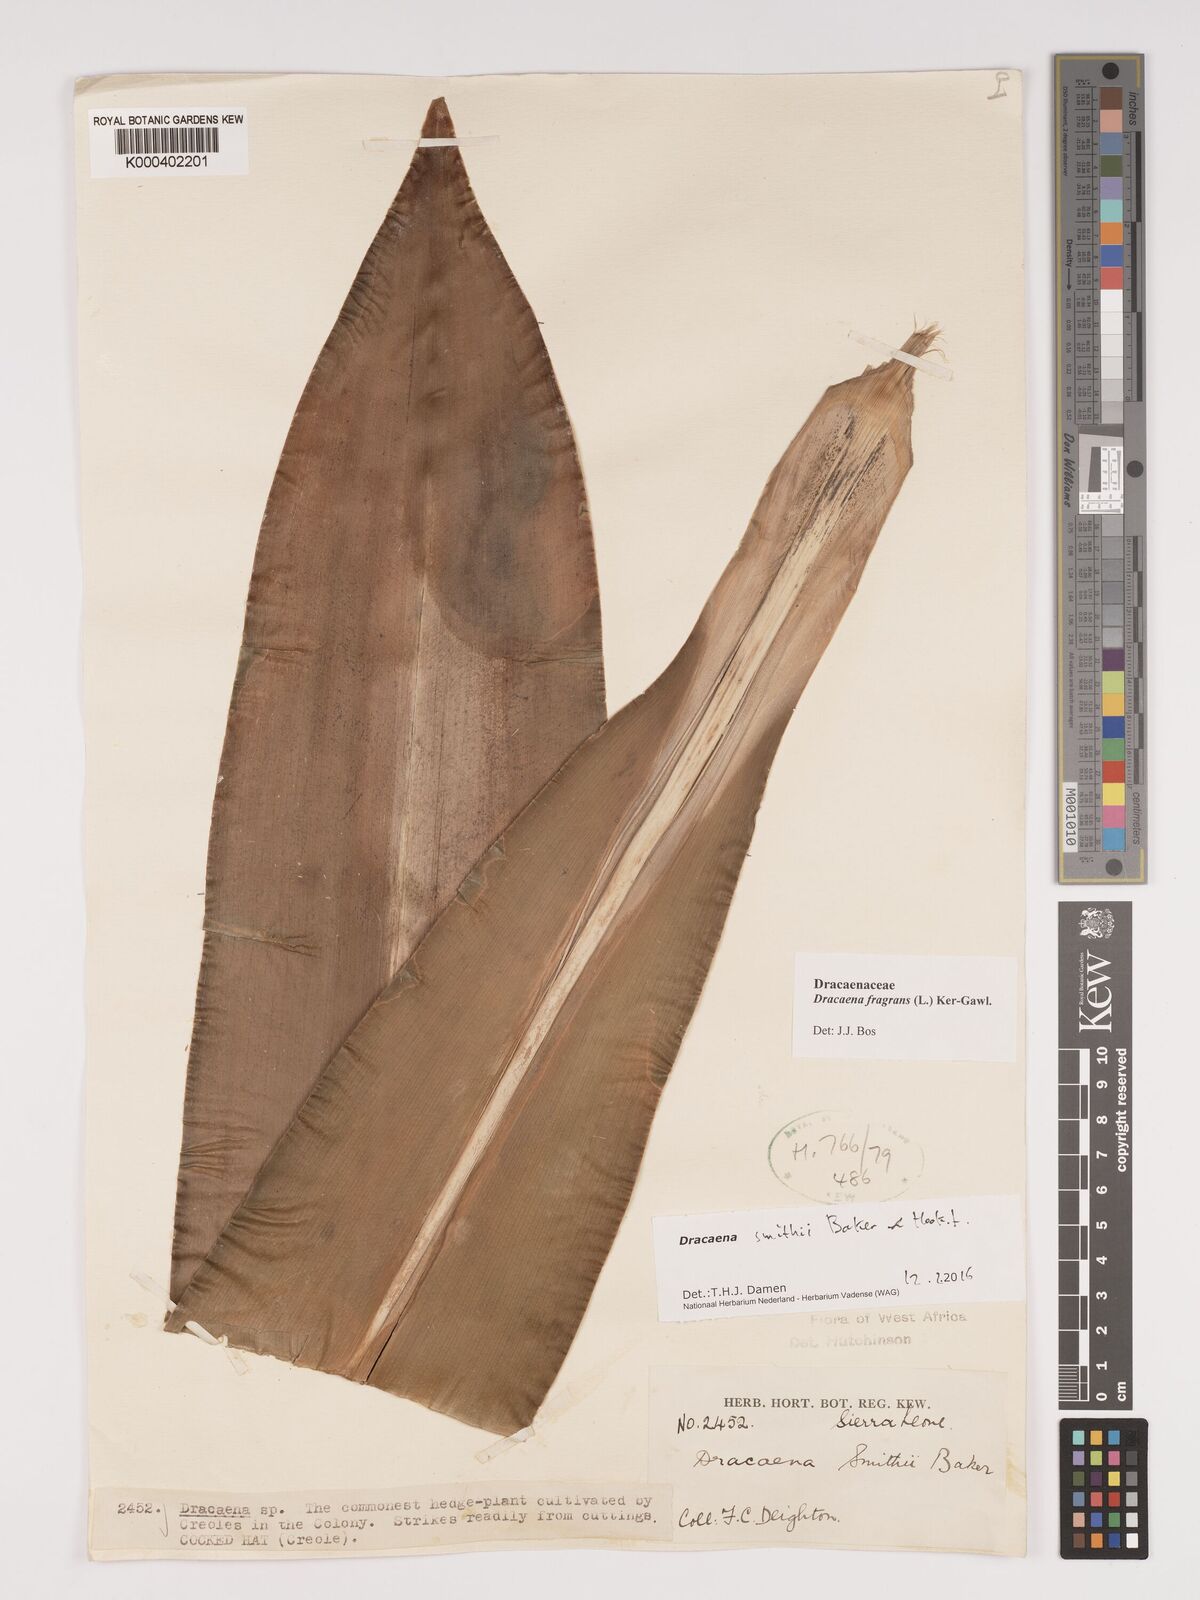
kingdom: Plantae
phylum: Tracheophyta
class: Liliopsida
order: Asparagales
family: Asparagaceae
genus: Dracaena
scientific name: Dracaena fragrans
